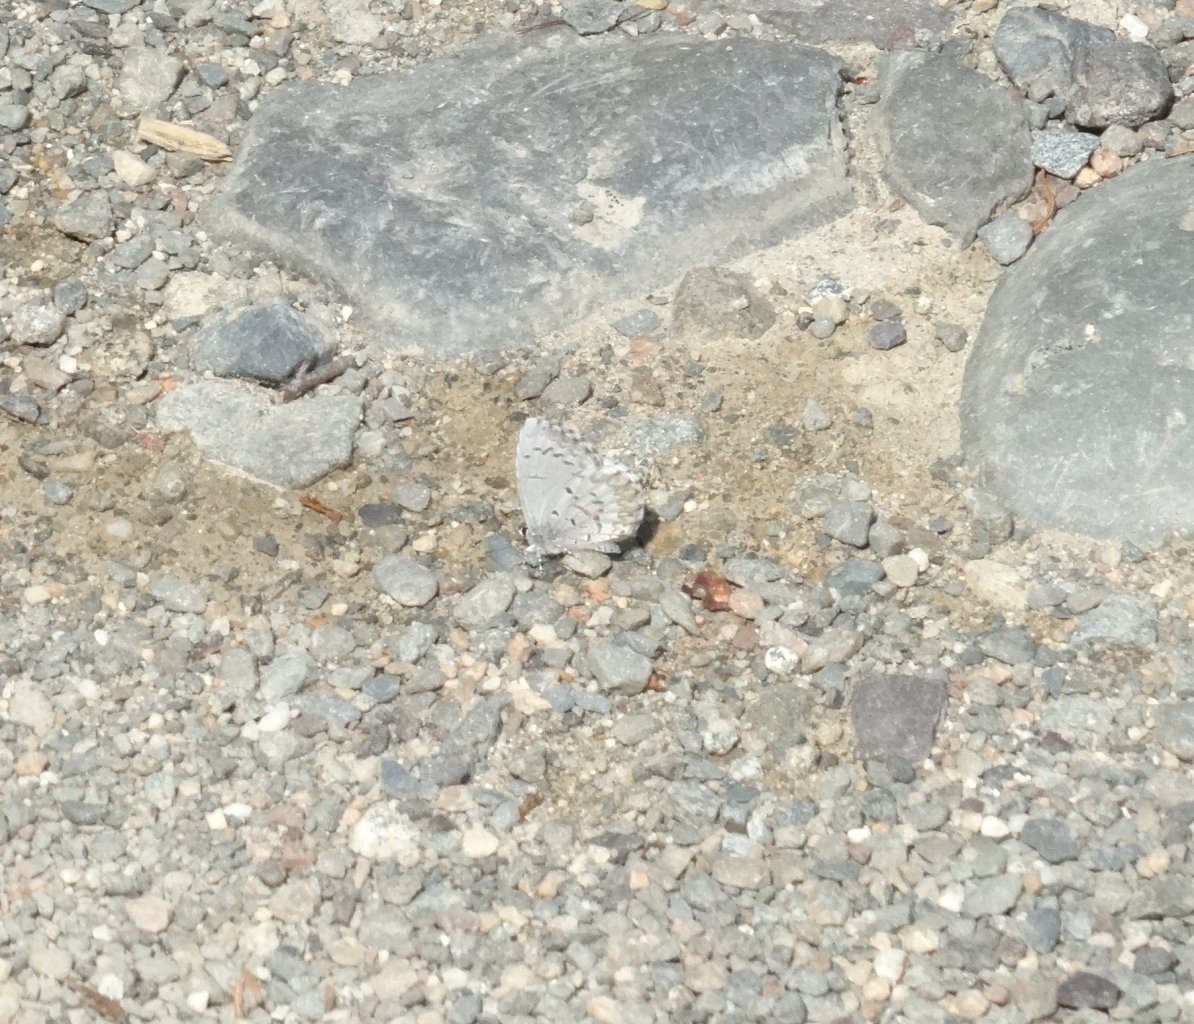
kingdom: Animalia
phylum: Arthropoda
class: Insecta
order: Lepidoptera
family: Lycaenidae
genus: Cyaniris
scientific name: Cyaniris neglecta
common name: Summer Azure
